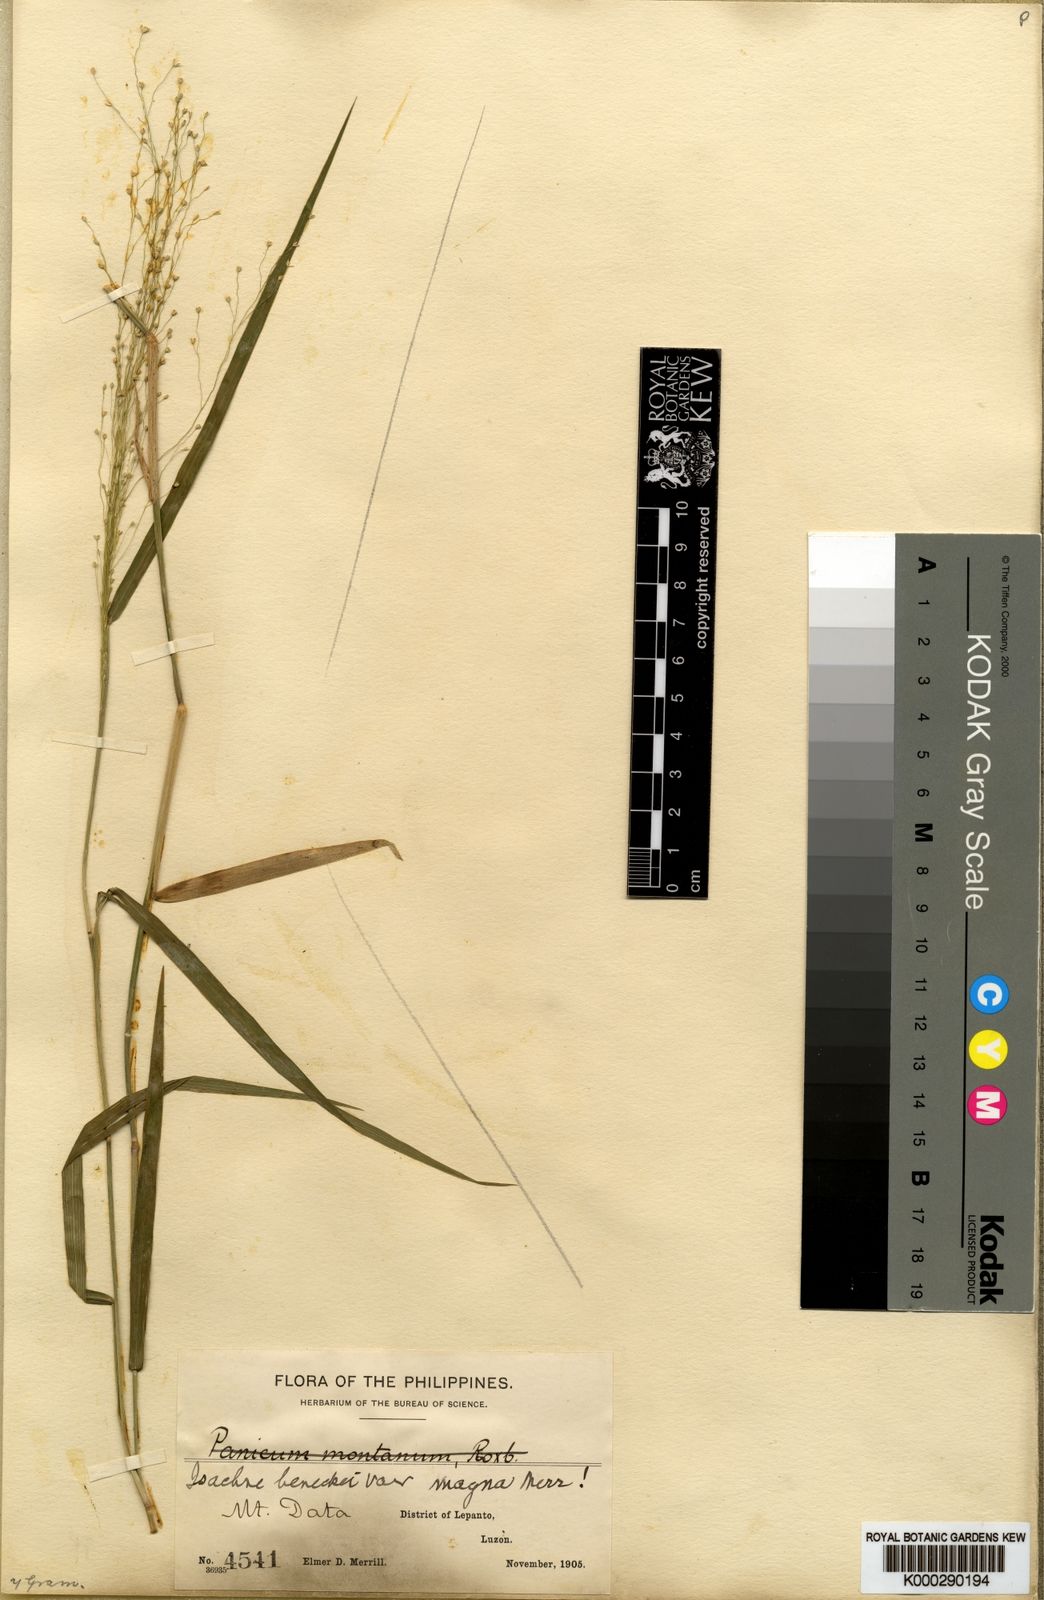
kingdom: Plantae
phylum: Tracheophyta
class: Liliopsida
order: Poales
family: Poaceae
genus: Isachne
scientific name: Isachne albens
